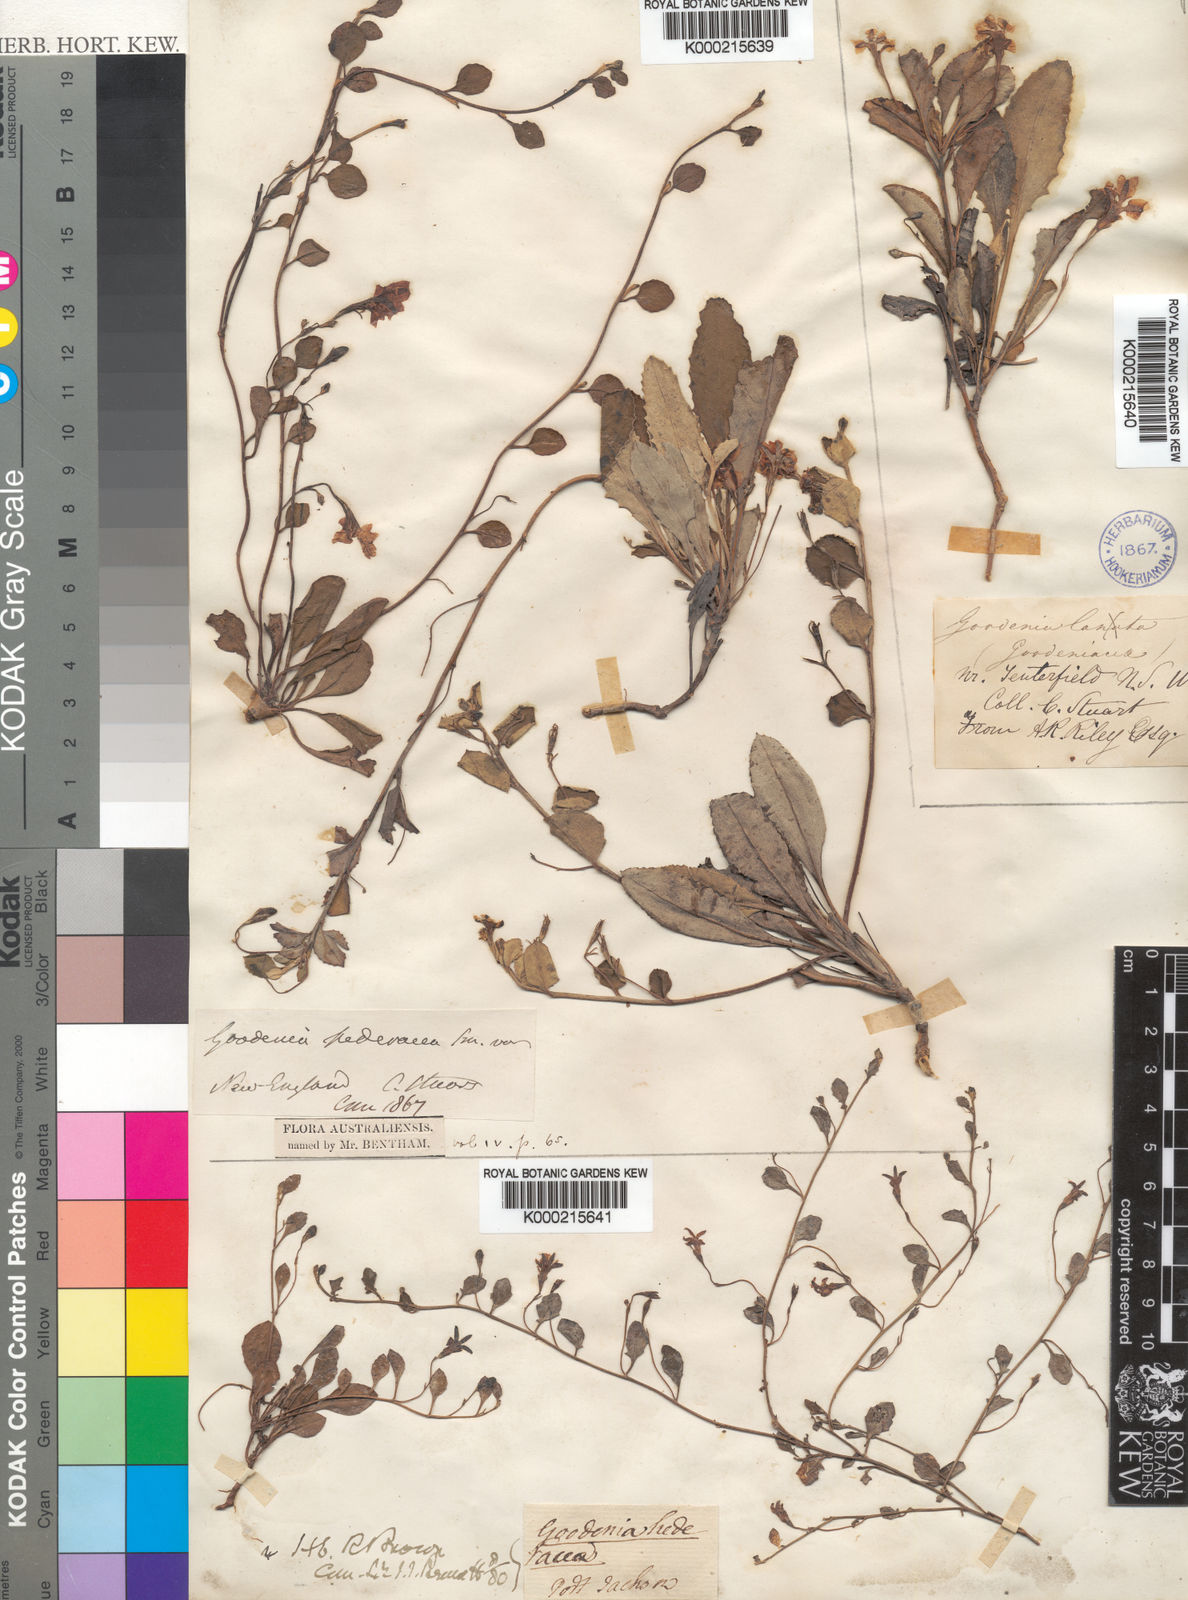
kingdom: Plantae
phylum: Tracheophyta
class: Magnoliopsida
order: Asterales
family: Goodeniaceae
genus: Goodenia
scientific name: Goodenia hederacea
